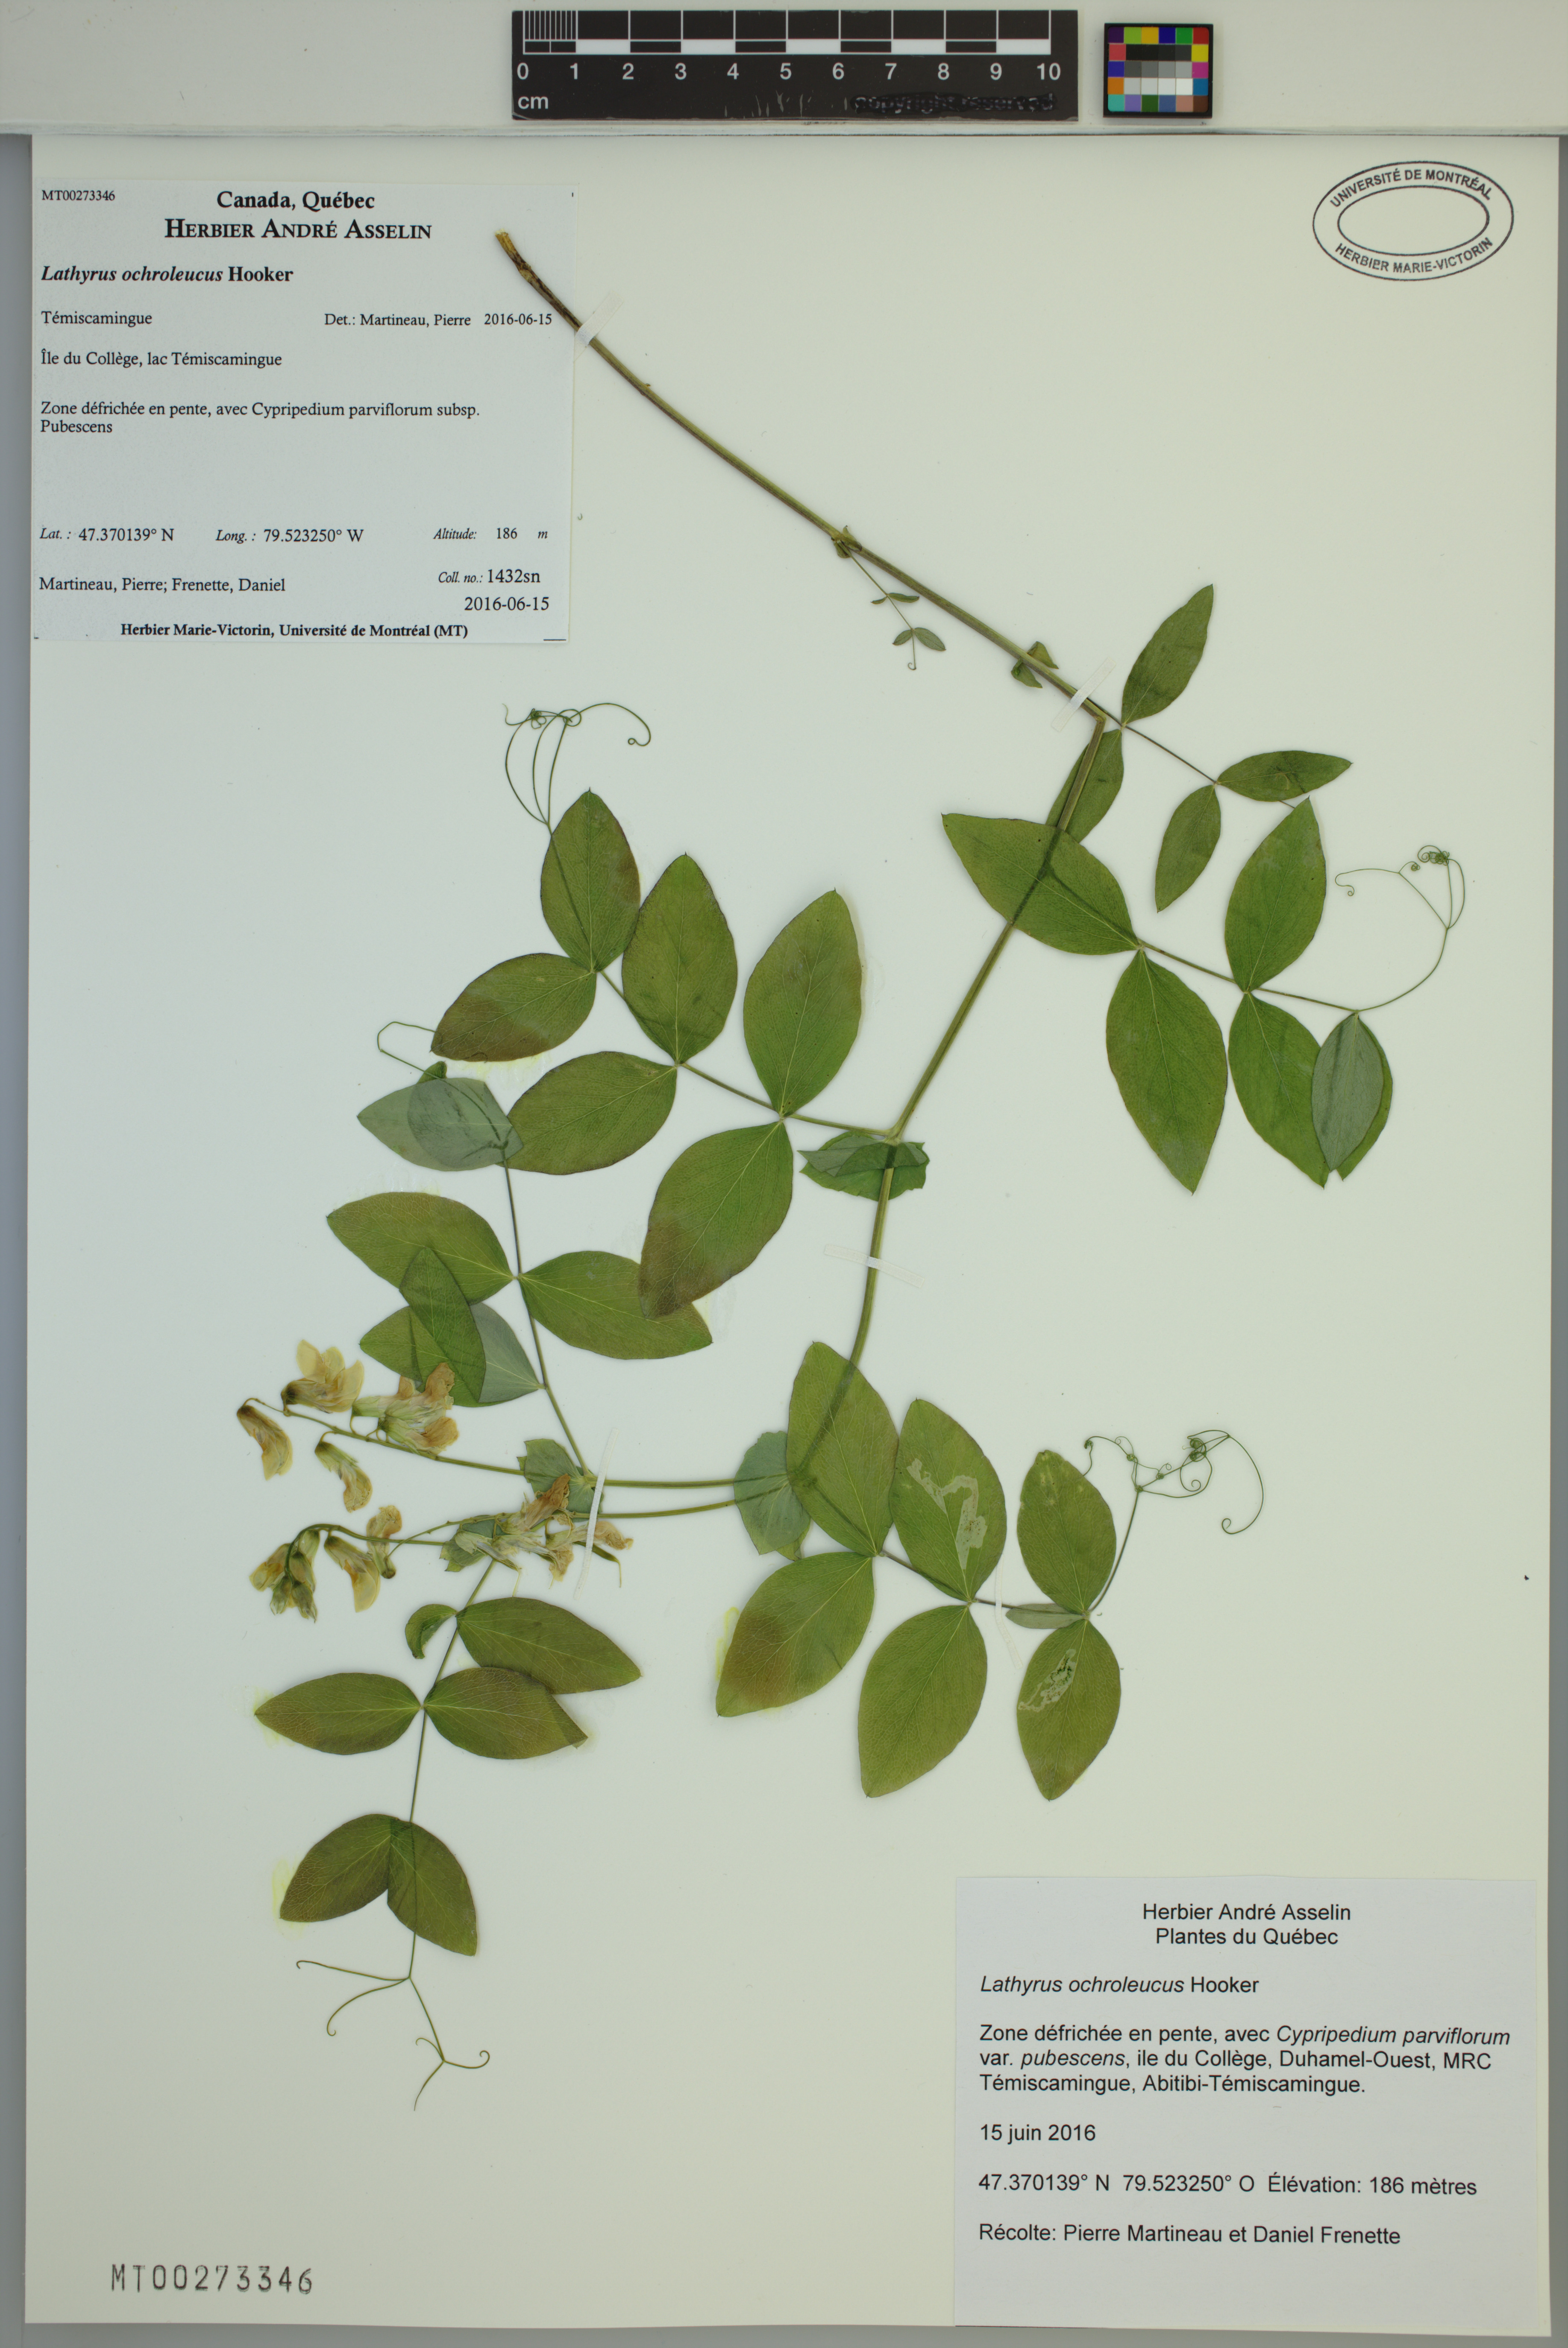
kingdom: Plantae
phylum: Tracheophyta
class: Magnoliopsida
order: Fabales
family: Fabaceae
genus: Lathyrus
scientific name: Lathyrus ochroleucus
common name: Pale vetchling
